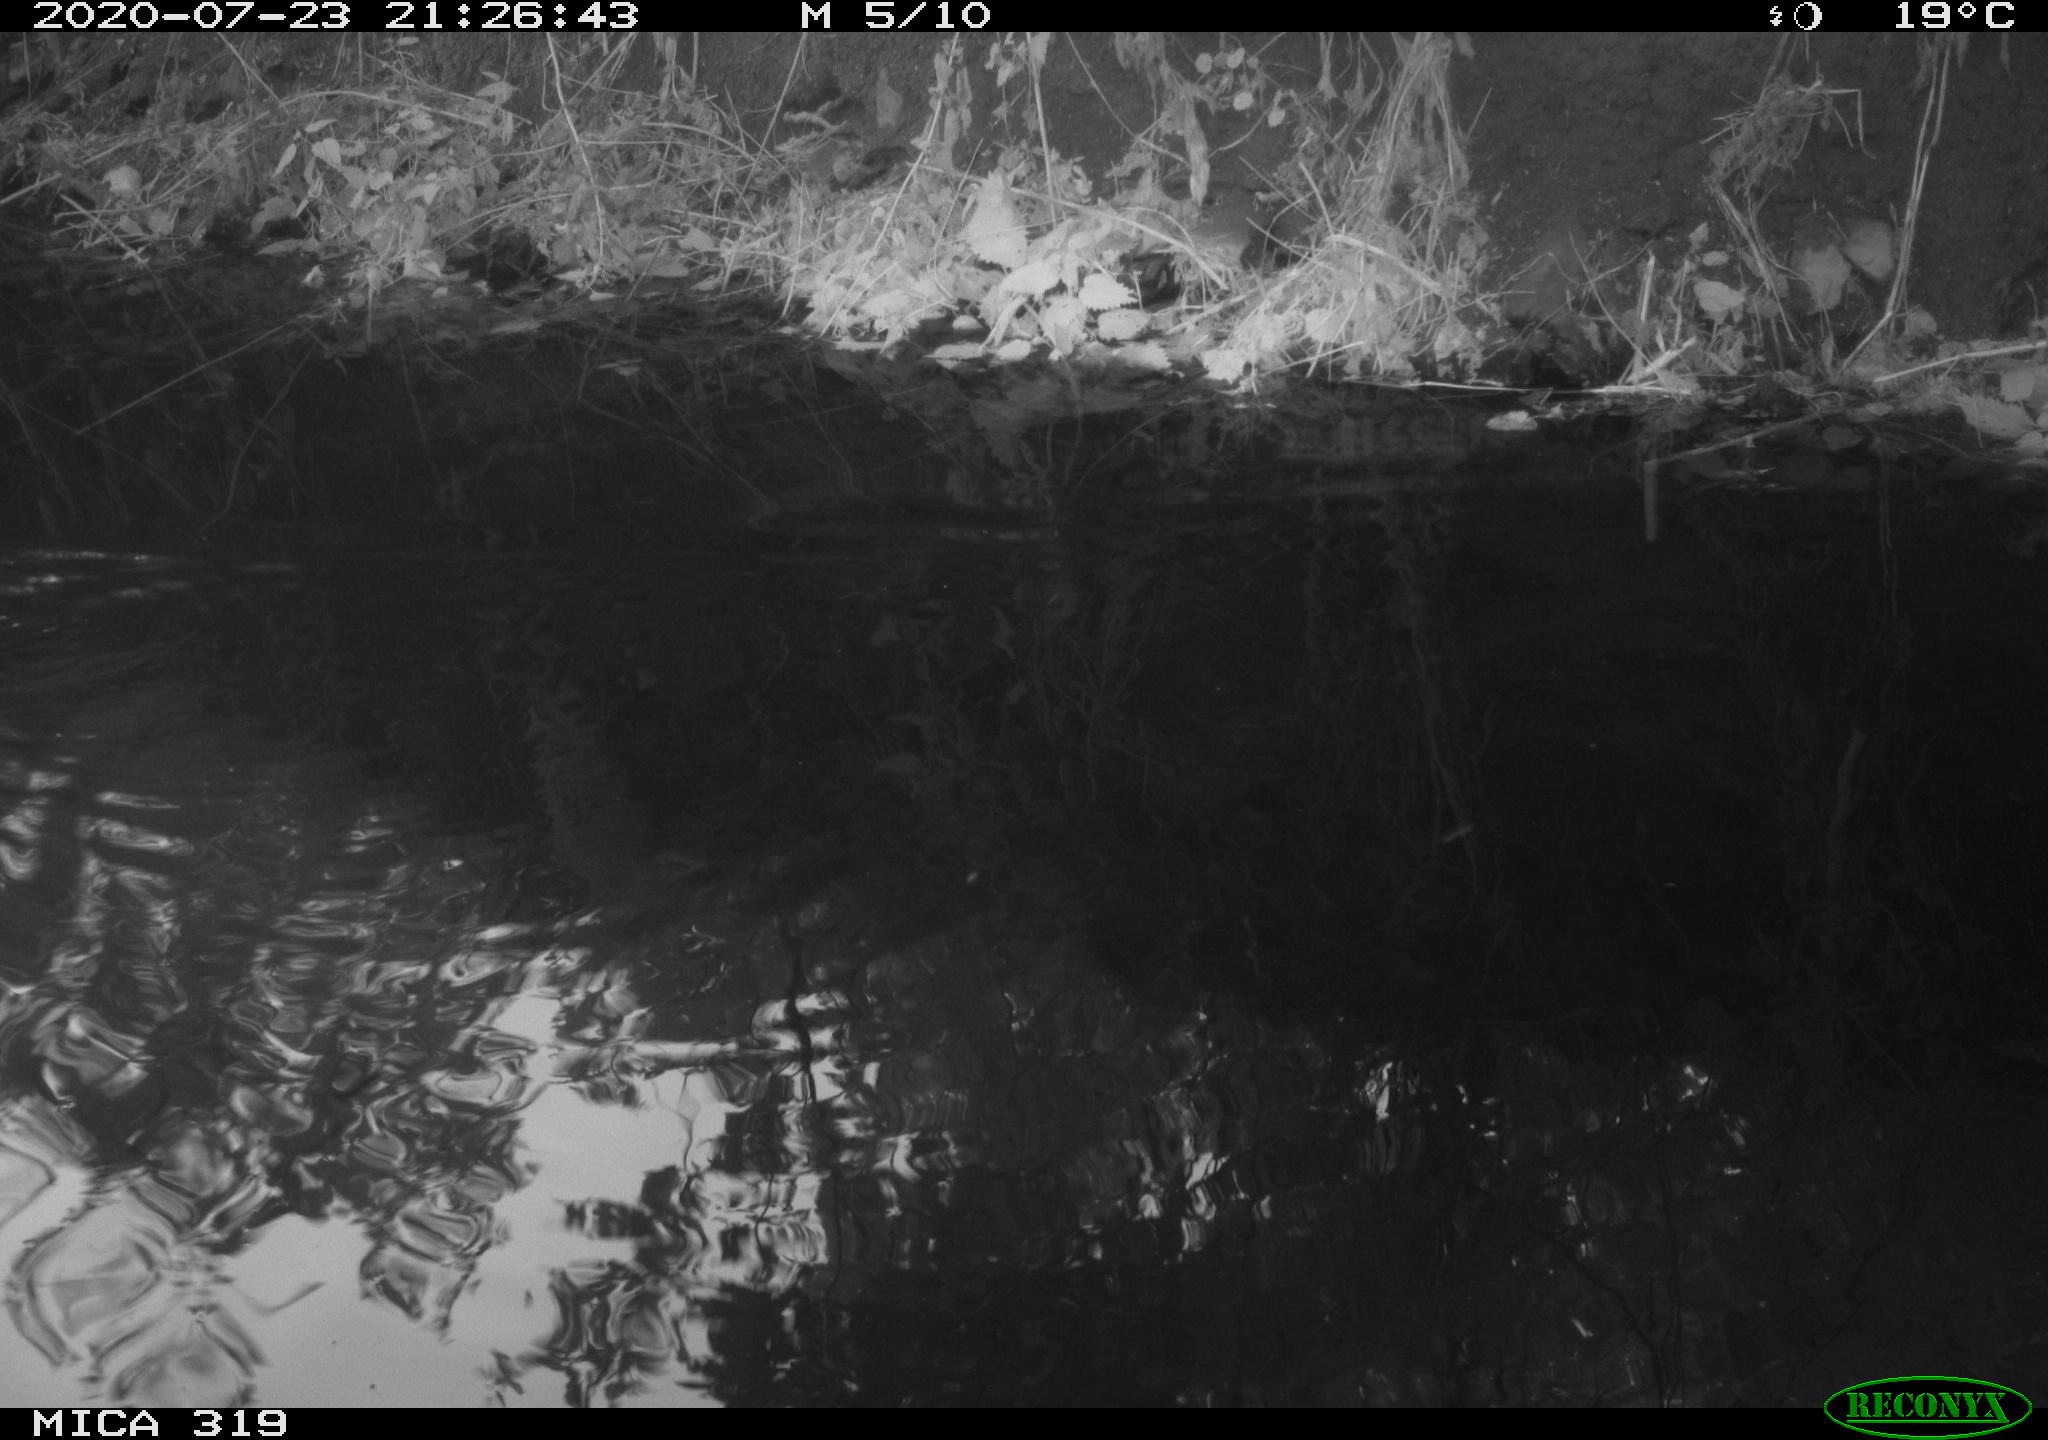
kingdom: Animalia
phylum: Chordata
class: Aves
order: Gruiformes
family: Rallidae
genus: Gallinula
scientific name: Gallinula chloropus
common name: Common moorhen
